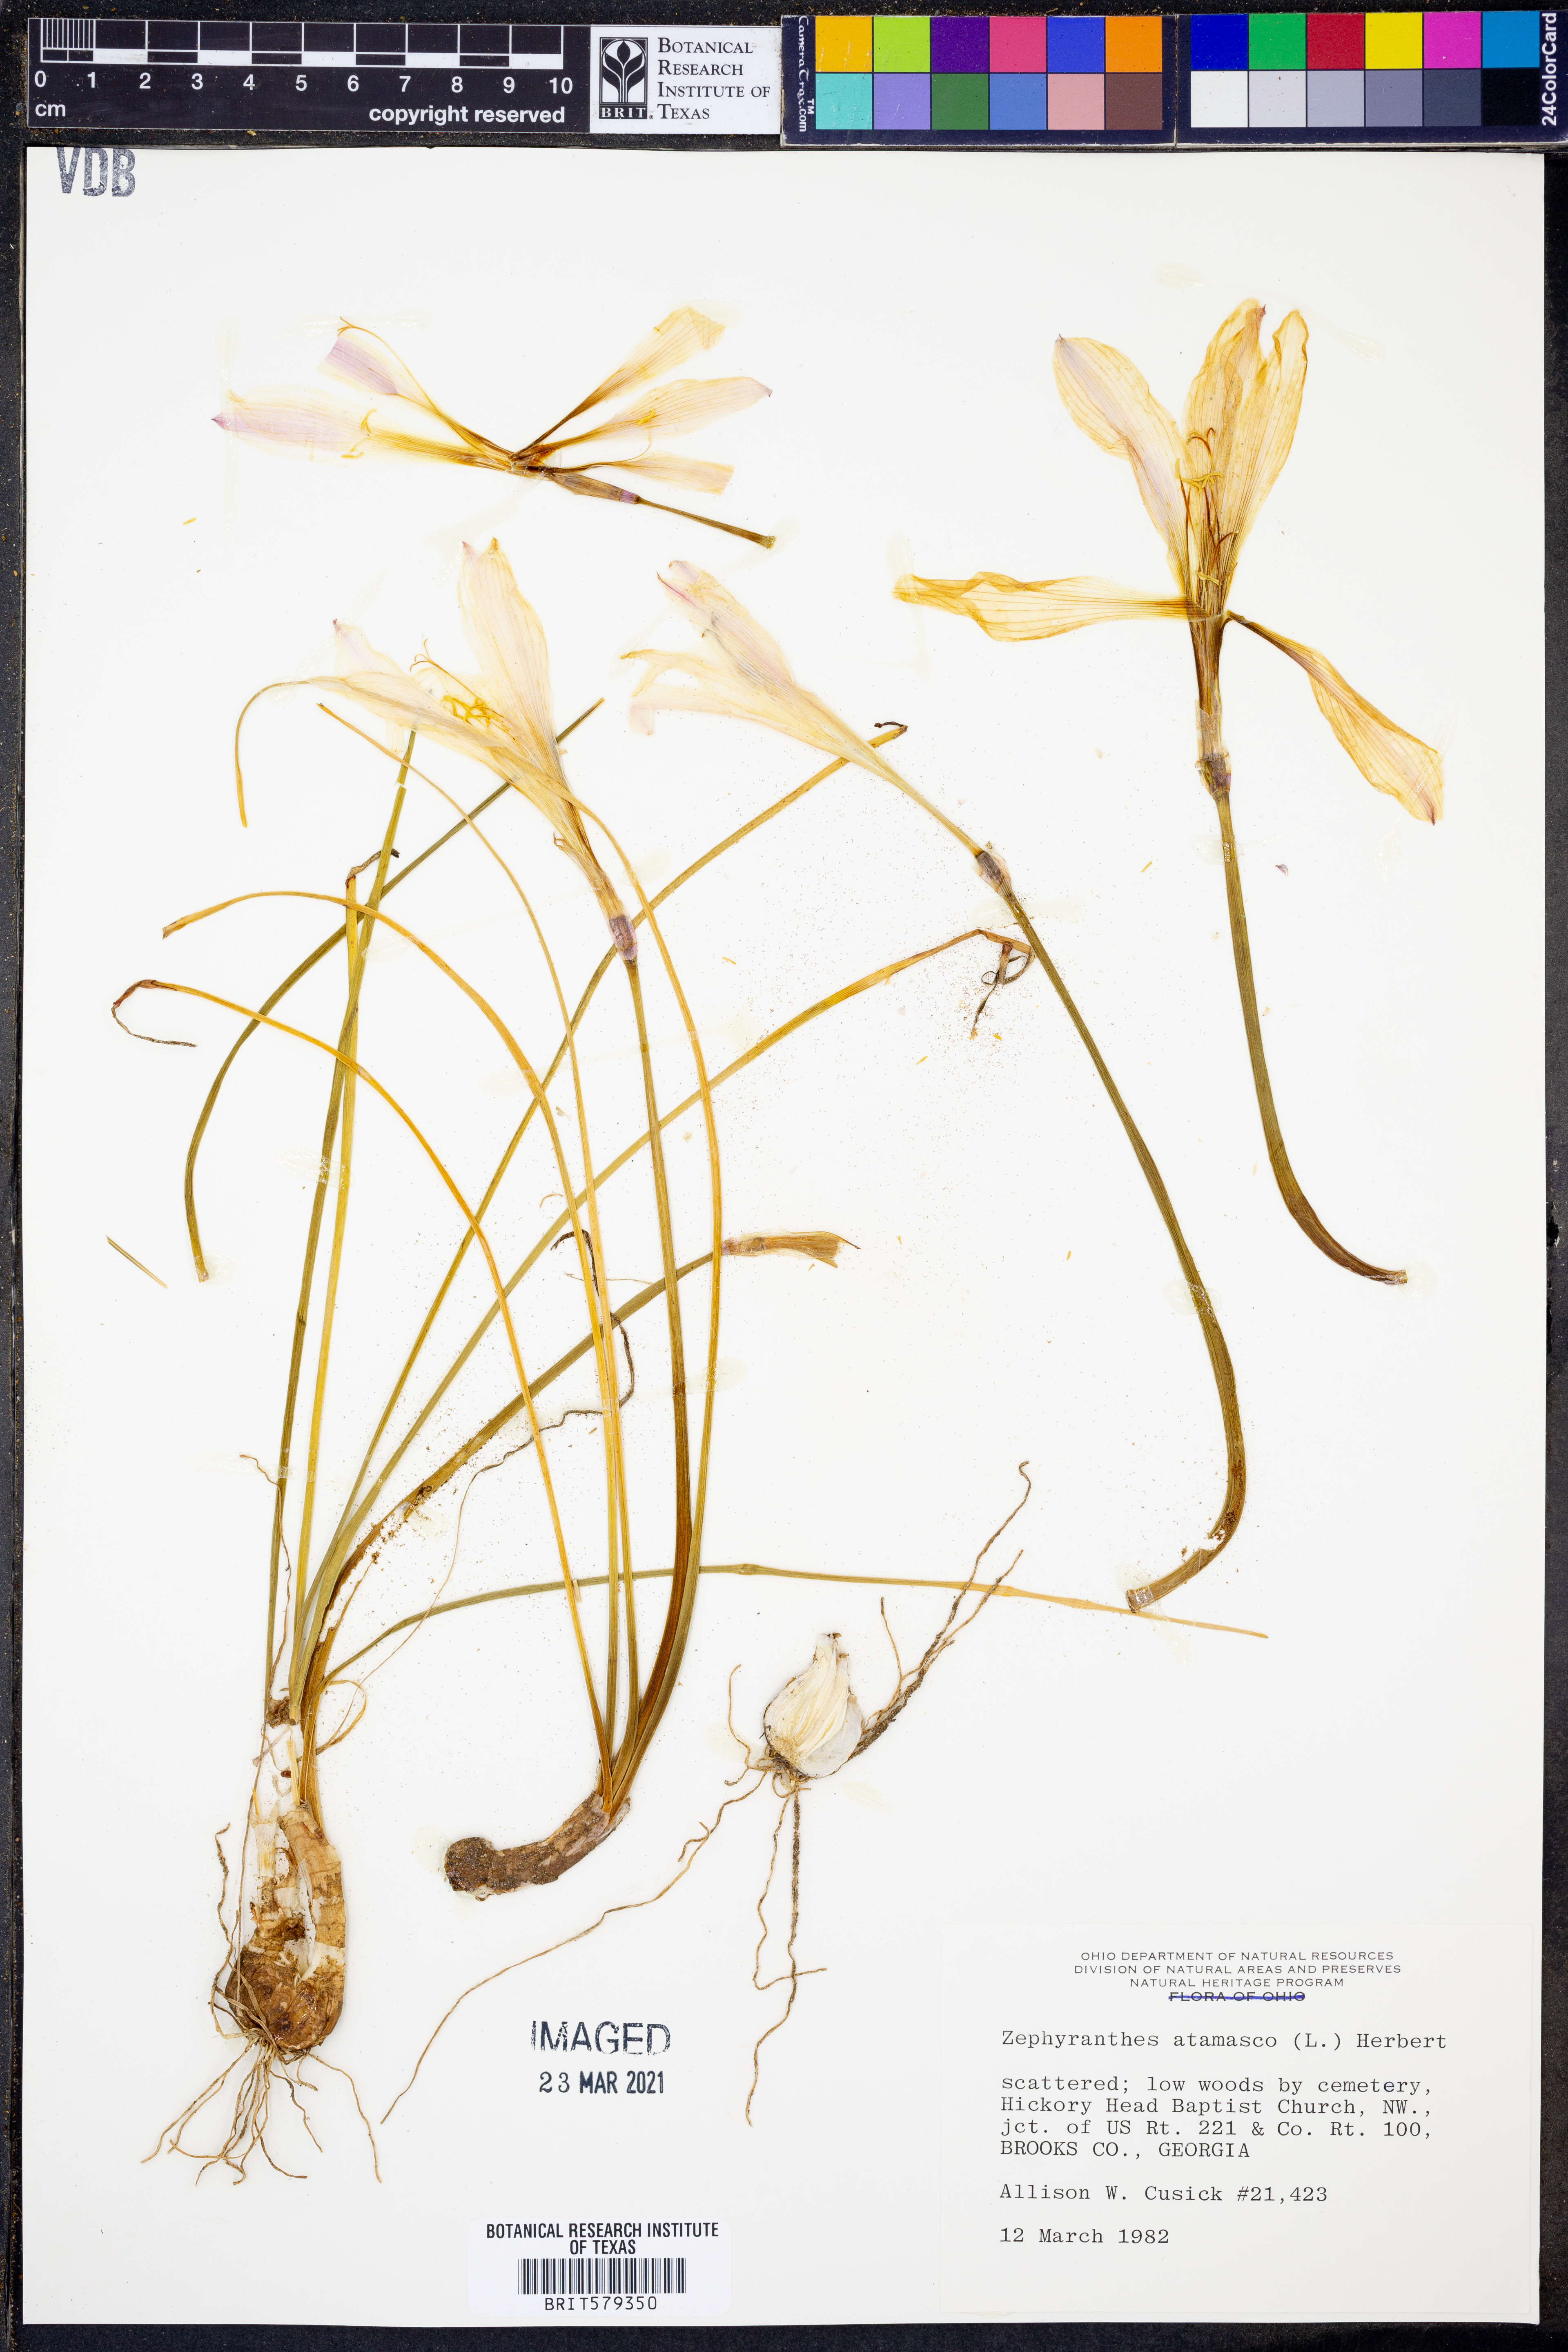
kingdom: Plantae
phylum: Tracheophyta
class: Liliopsida
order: Asparagales
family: Amaryllidaceae
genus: Zephyranthes
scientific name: Zephyranthes atamasco
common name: Atamasco lily
